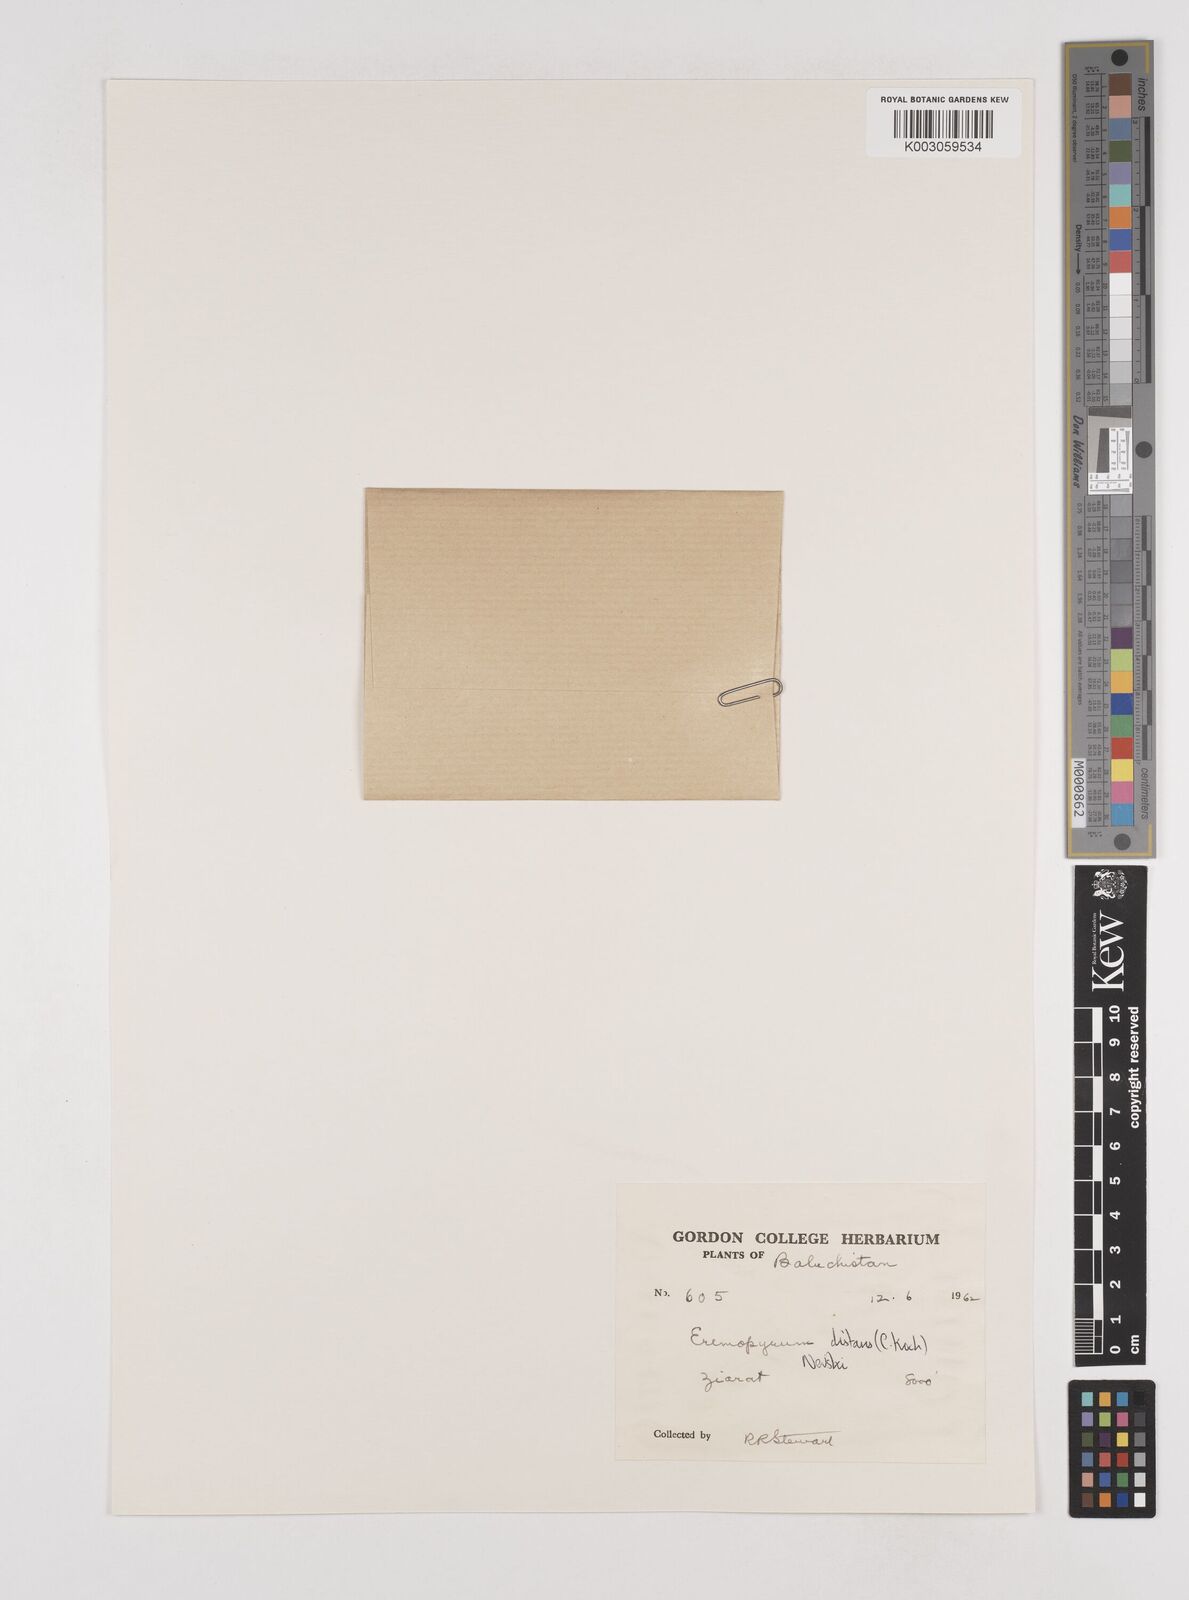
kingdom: Plantae
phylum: Tracheophyta
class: Liliopsida
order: Poales
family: Poaceae
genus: Eremopyrum
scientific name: Eremopyrum distans
